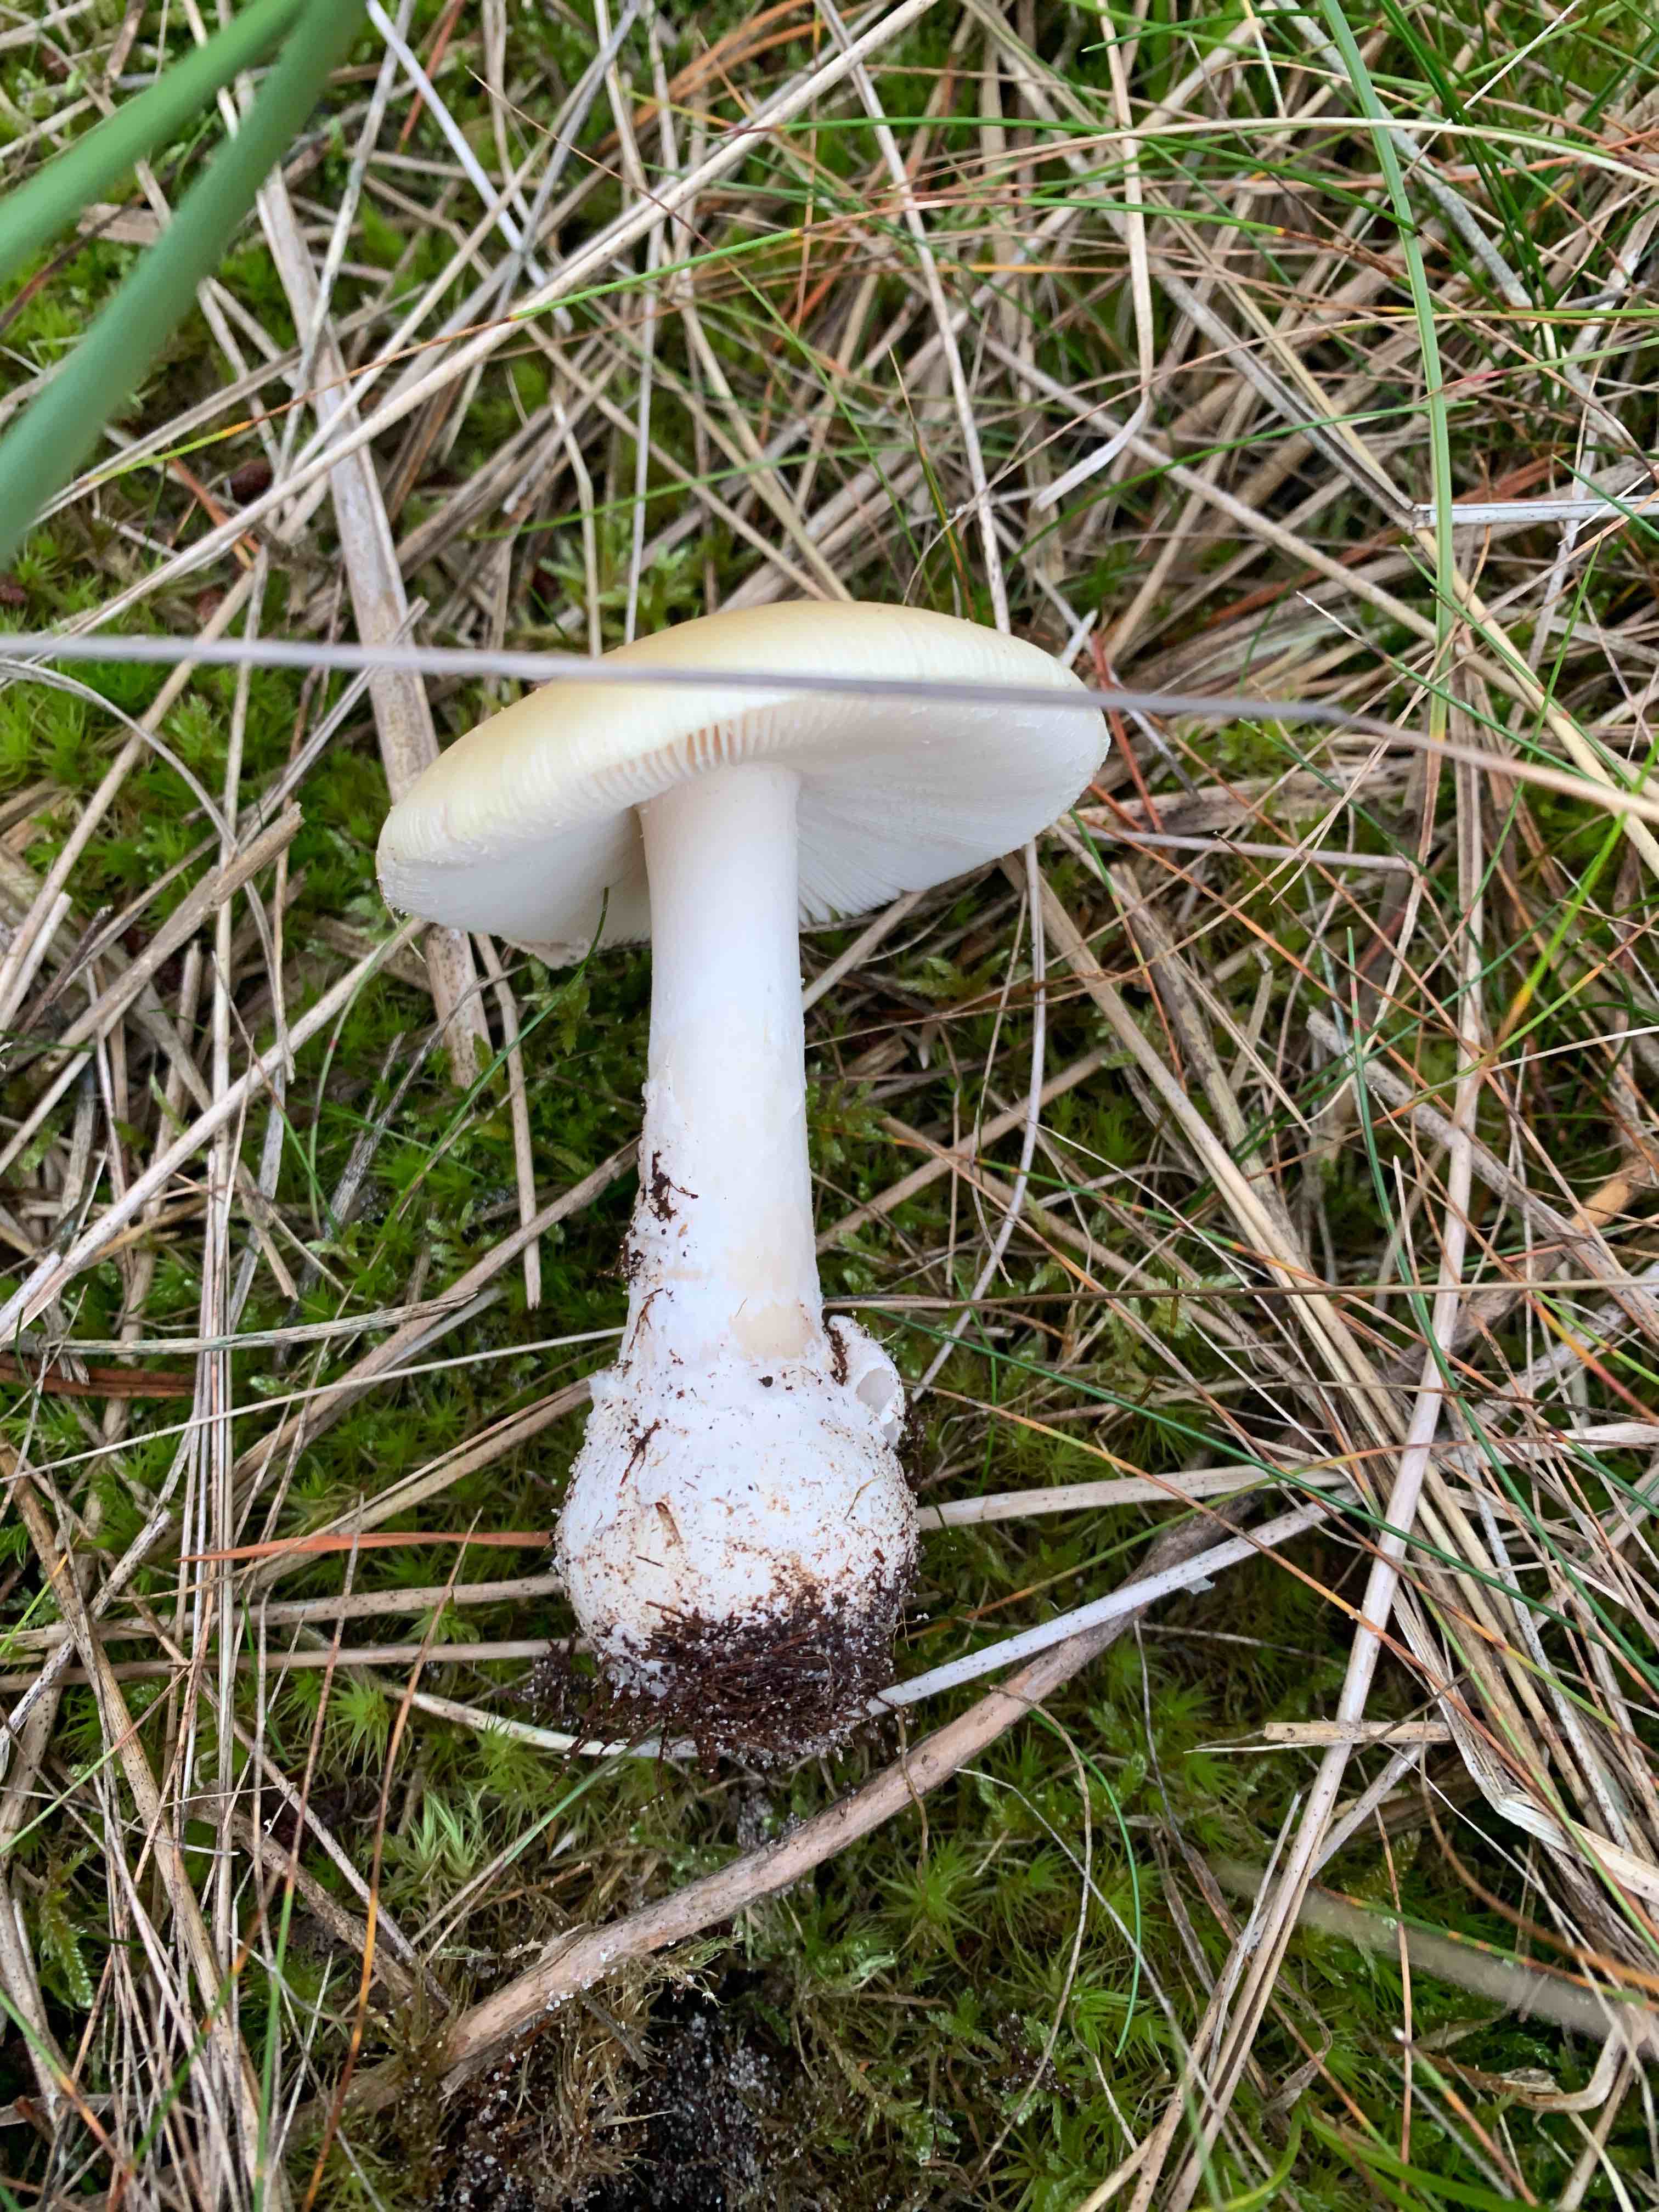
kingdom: Fungi
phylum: Basidiomycota
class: Agaricomycetes
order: Agaricales
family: Amanitaceae
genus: Amanita
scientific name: Amanita gemmata
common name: okkergul fluesvamp
